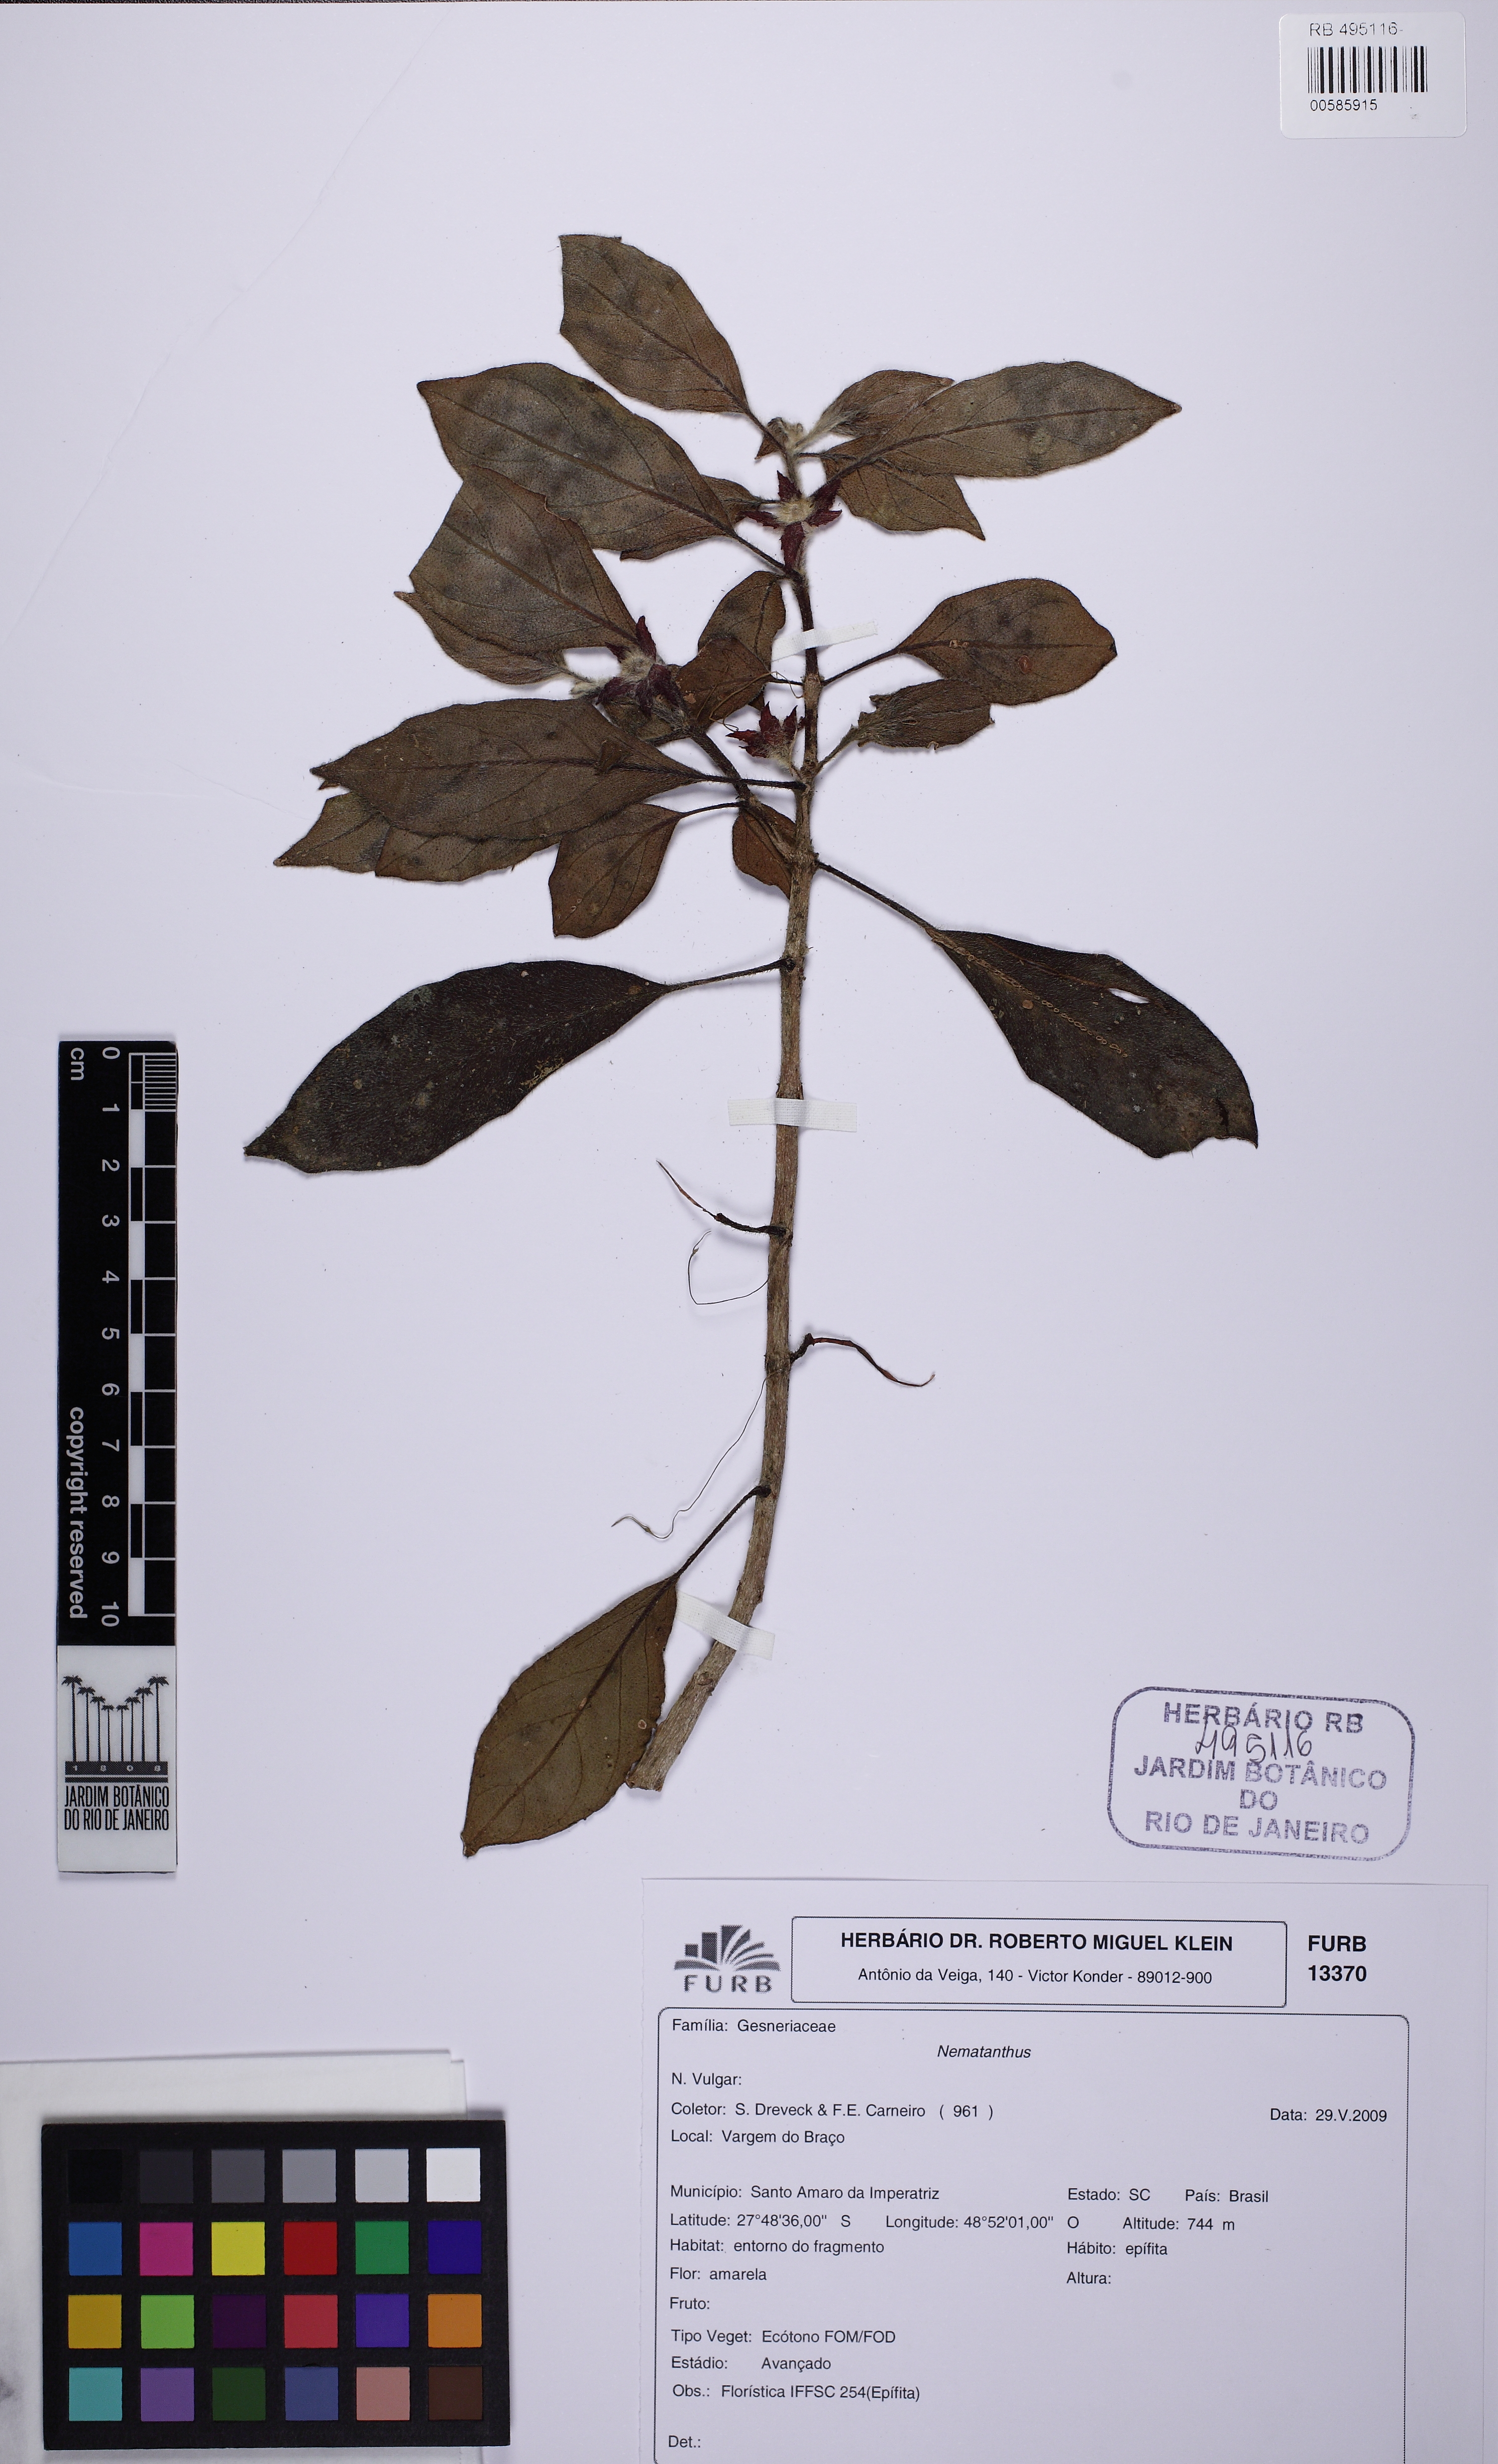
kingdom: Plantae
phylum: Tracheophyta
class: Magnoliopsida
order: Lamiales
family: Gesneriaceae
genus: Nematanthus
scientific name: Nematanthus
